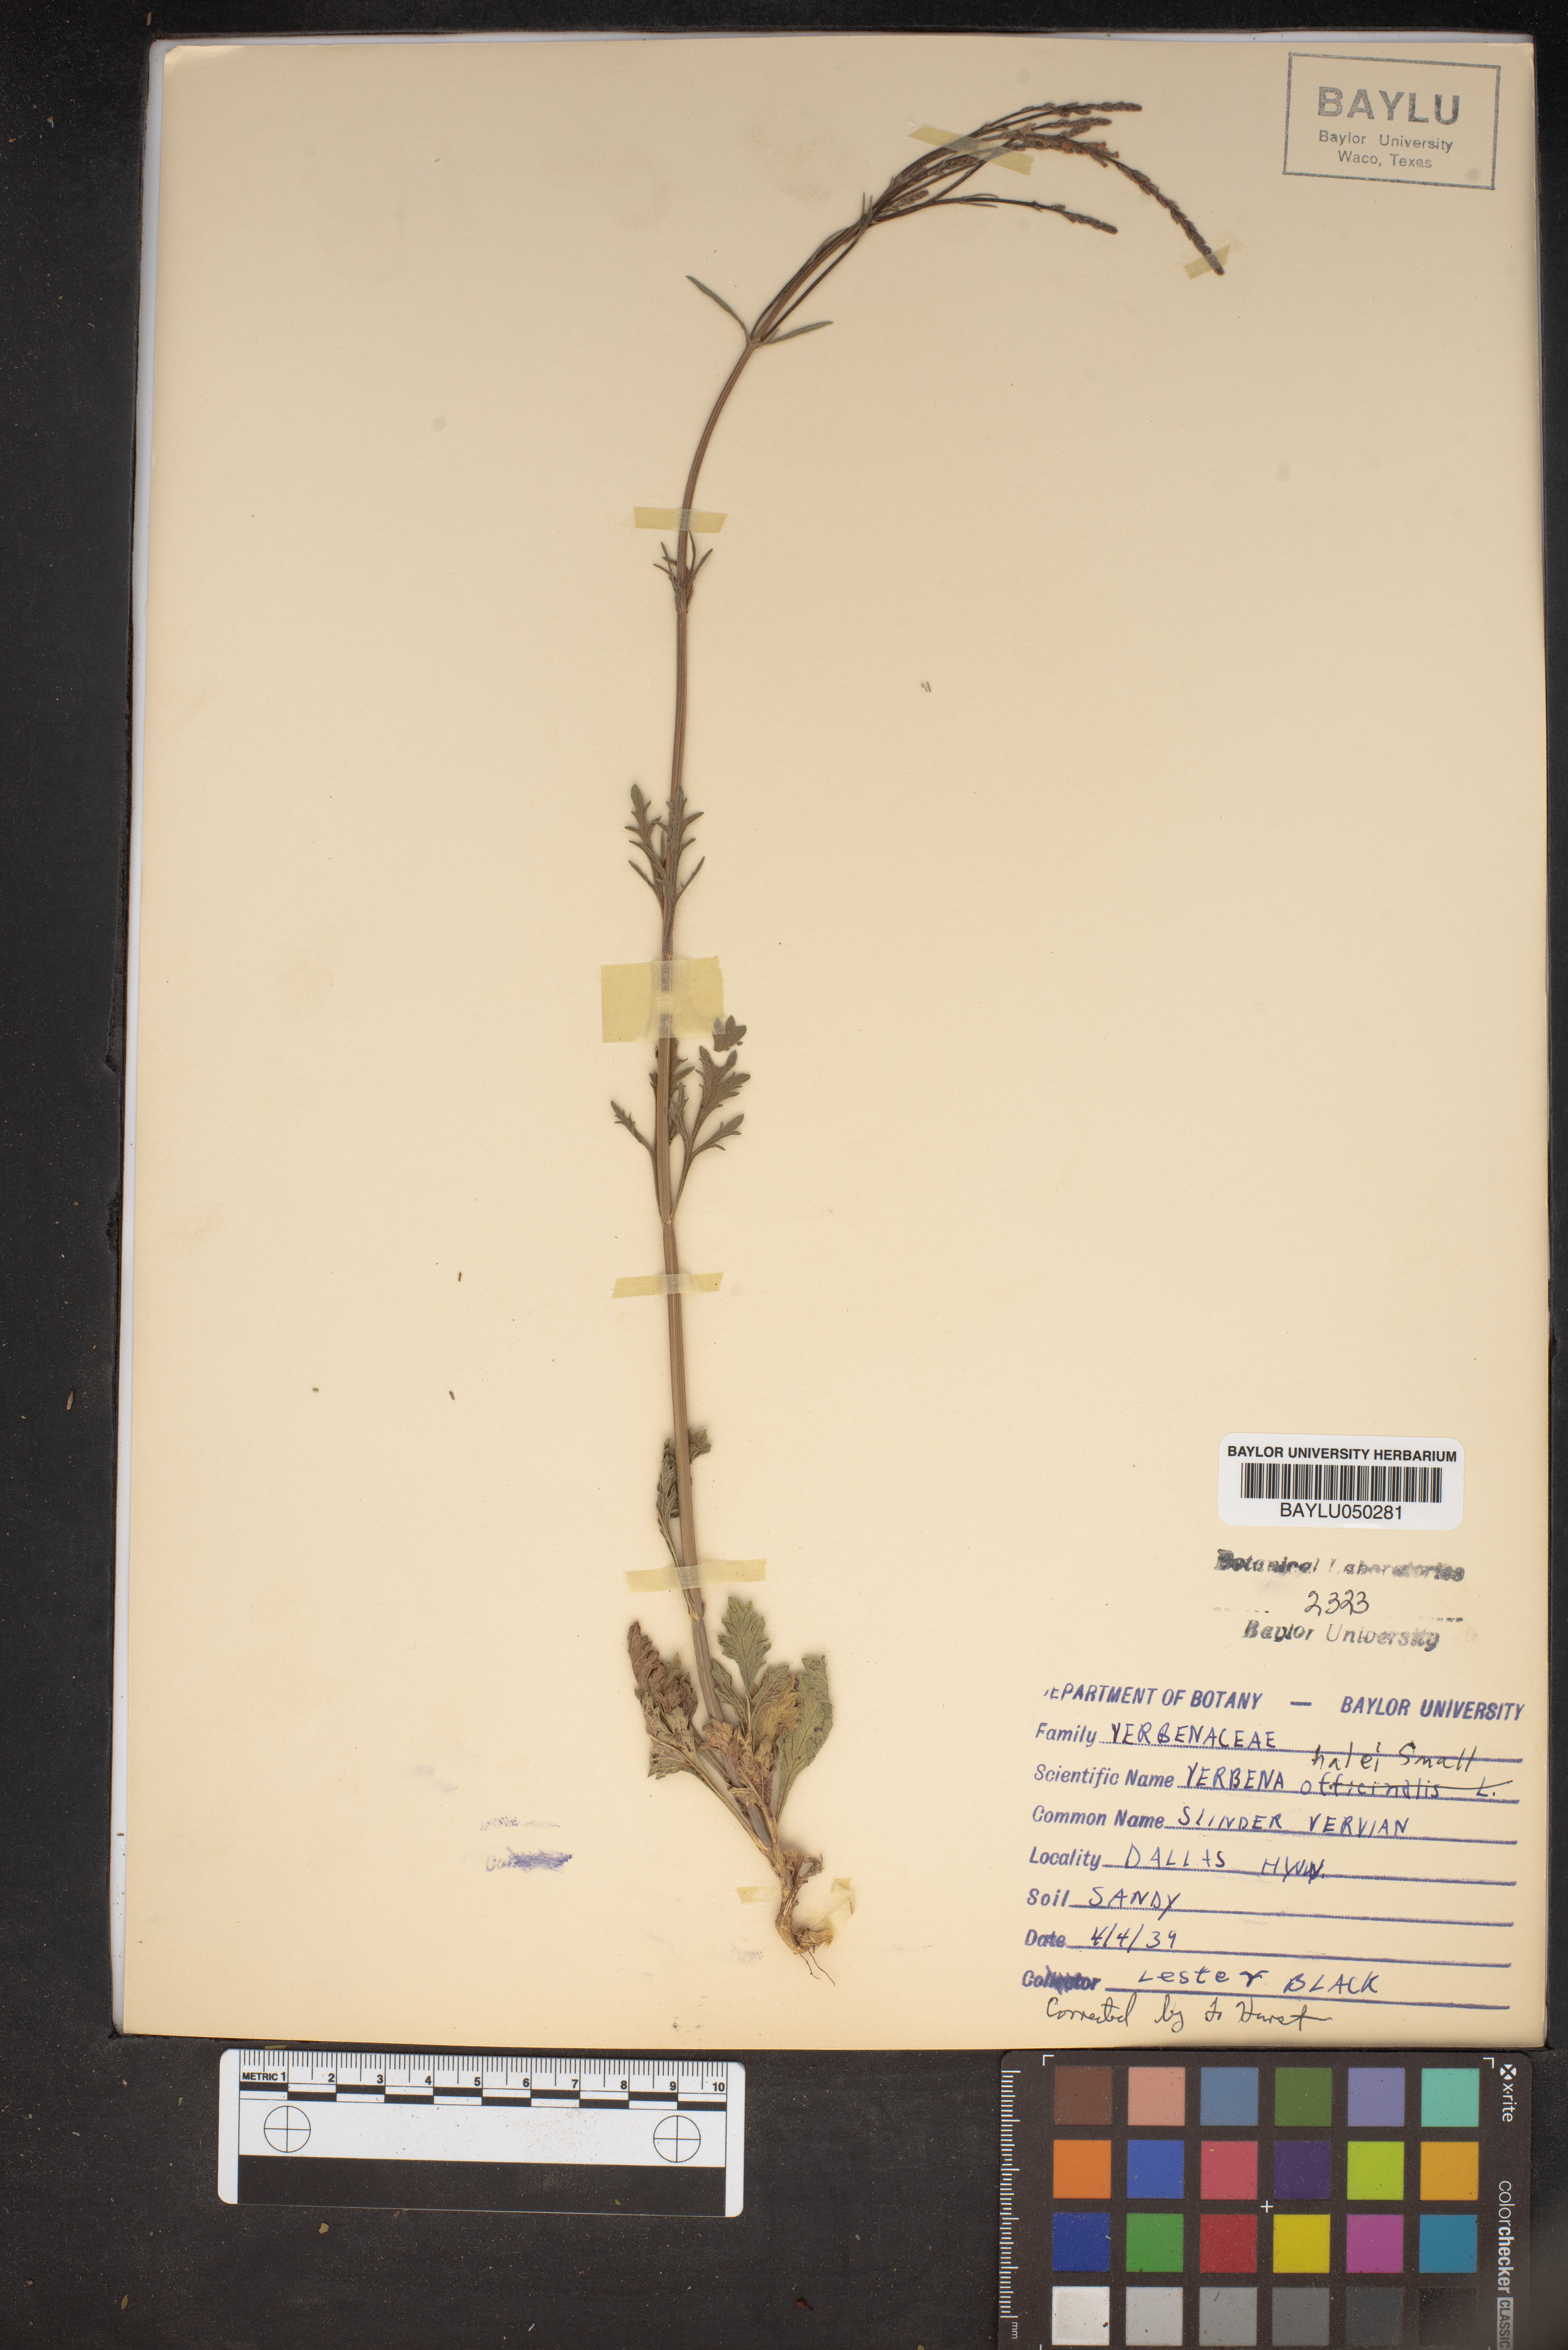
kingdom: Plantae
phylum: Tracheophyta
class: Magnoliopsida
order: Lamiales
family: Verbenaceae
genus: Verbena
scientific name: Verbena halei
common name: Texas vervain
